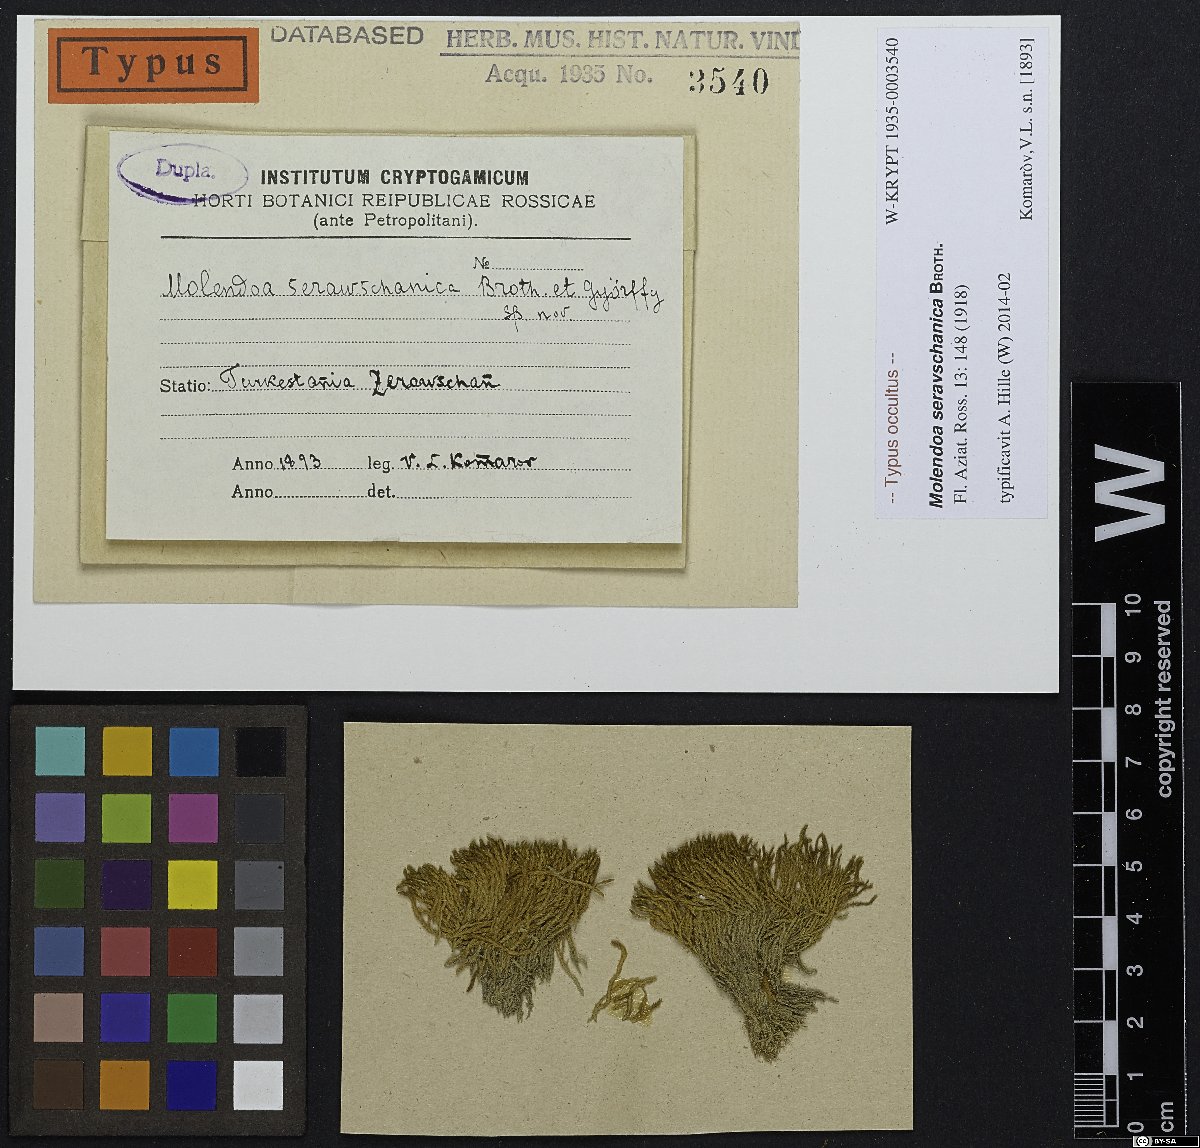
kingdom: Plantae
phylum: Bryophyta
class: Bryopsida
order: Pottiales
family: Pottiaceae
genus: Molendoa
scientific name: Molendoa seravschanica
